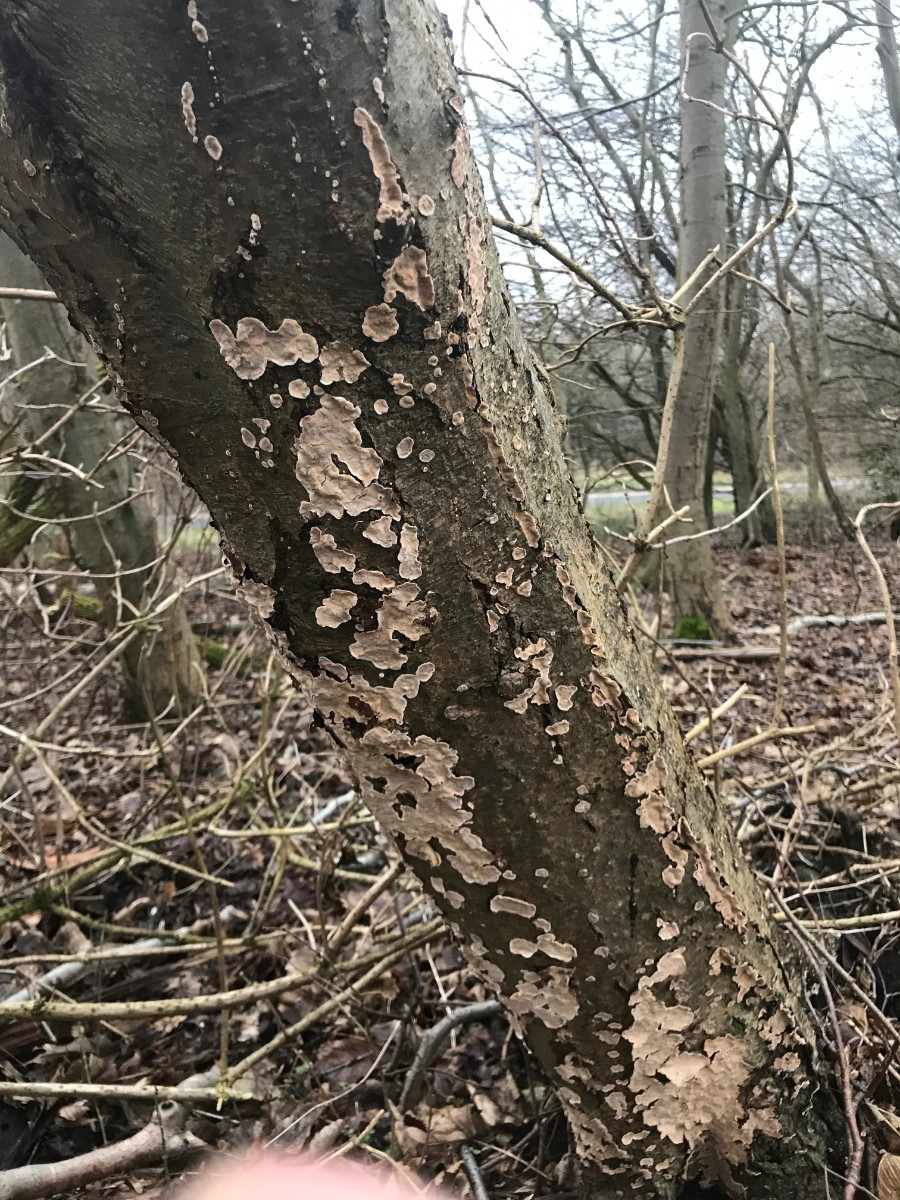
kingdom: Fungi
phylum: Basidiomycota
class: Agaricomycetes
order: Russulales
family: Stereaceae
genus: Stereum
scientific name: Stereum rugosum
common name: rynket lædersvamp
